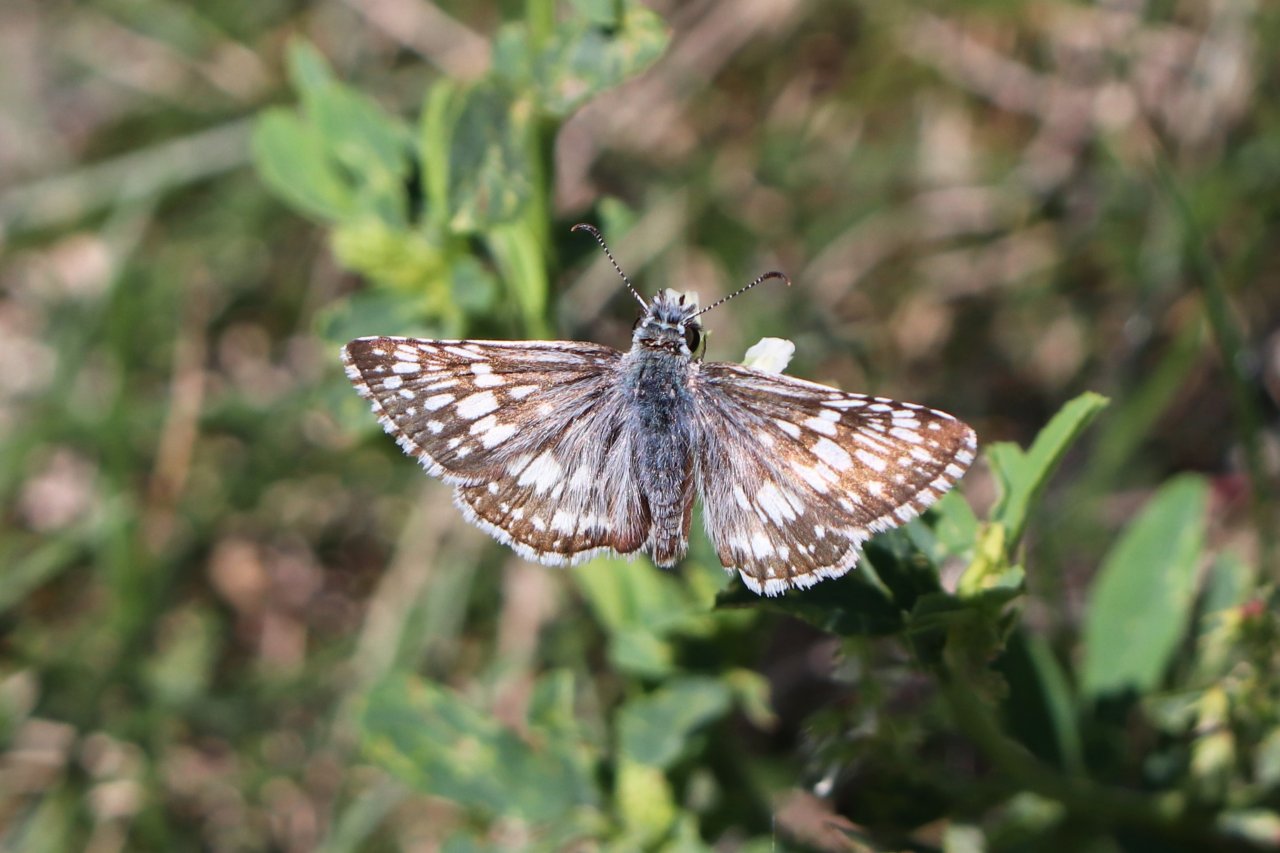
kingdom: Animalia
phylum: Arthropoda
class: Insecta
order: Lepidoptera
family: Hesperiidae
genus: Pyrgus
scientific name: Pyrgus communis
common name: Common Checkered-Skipper
